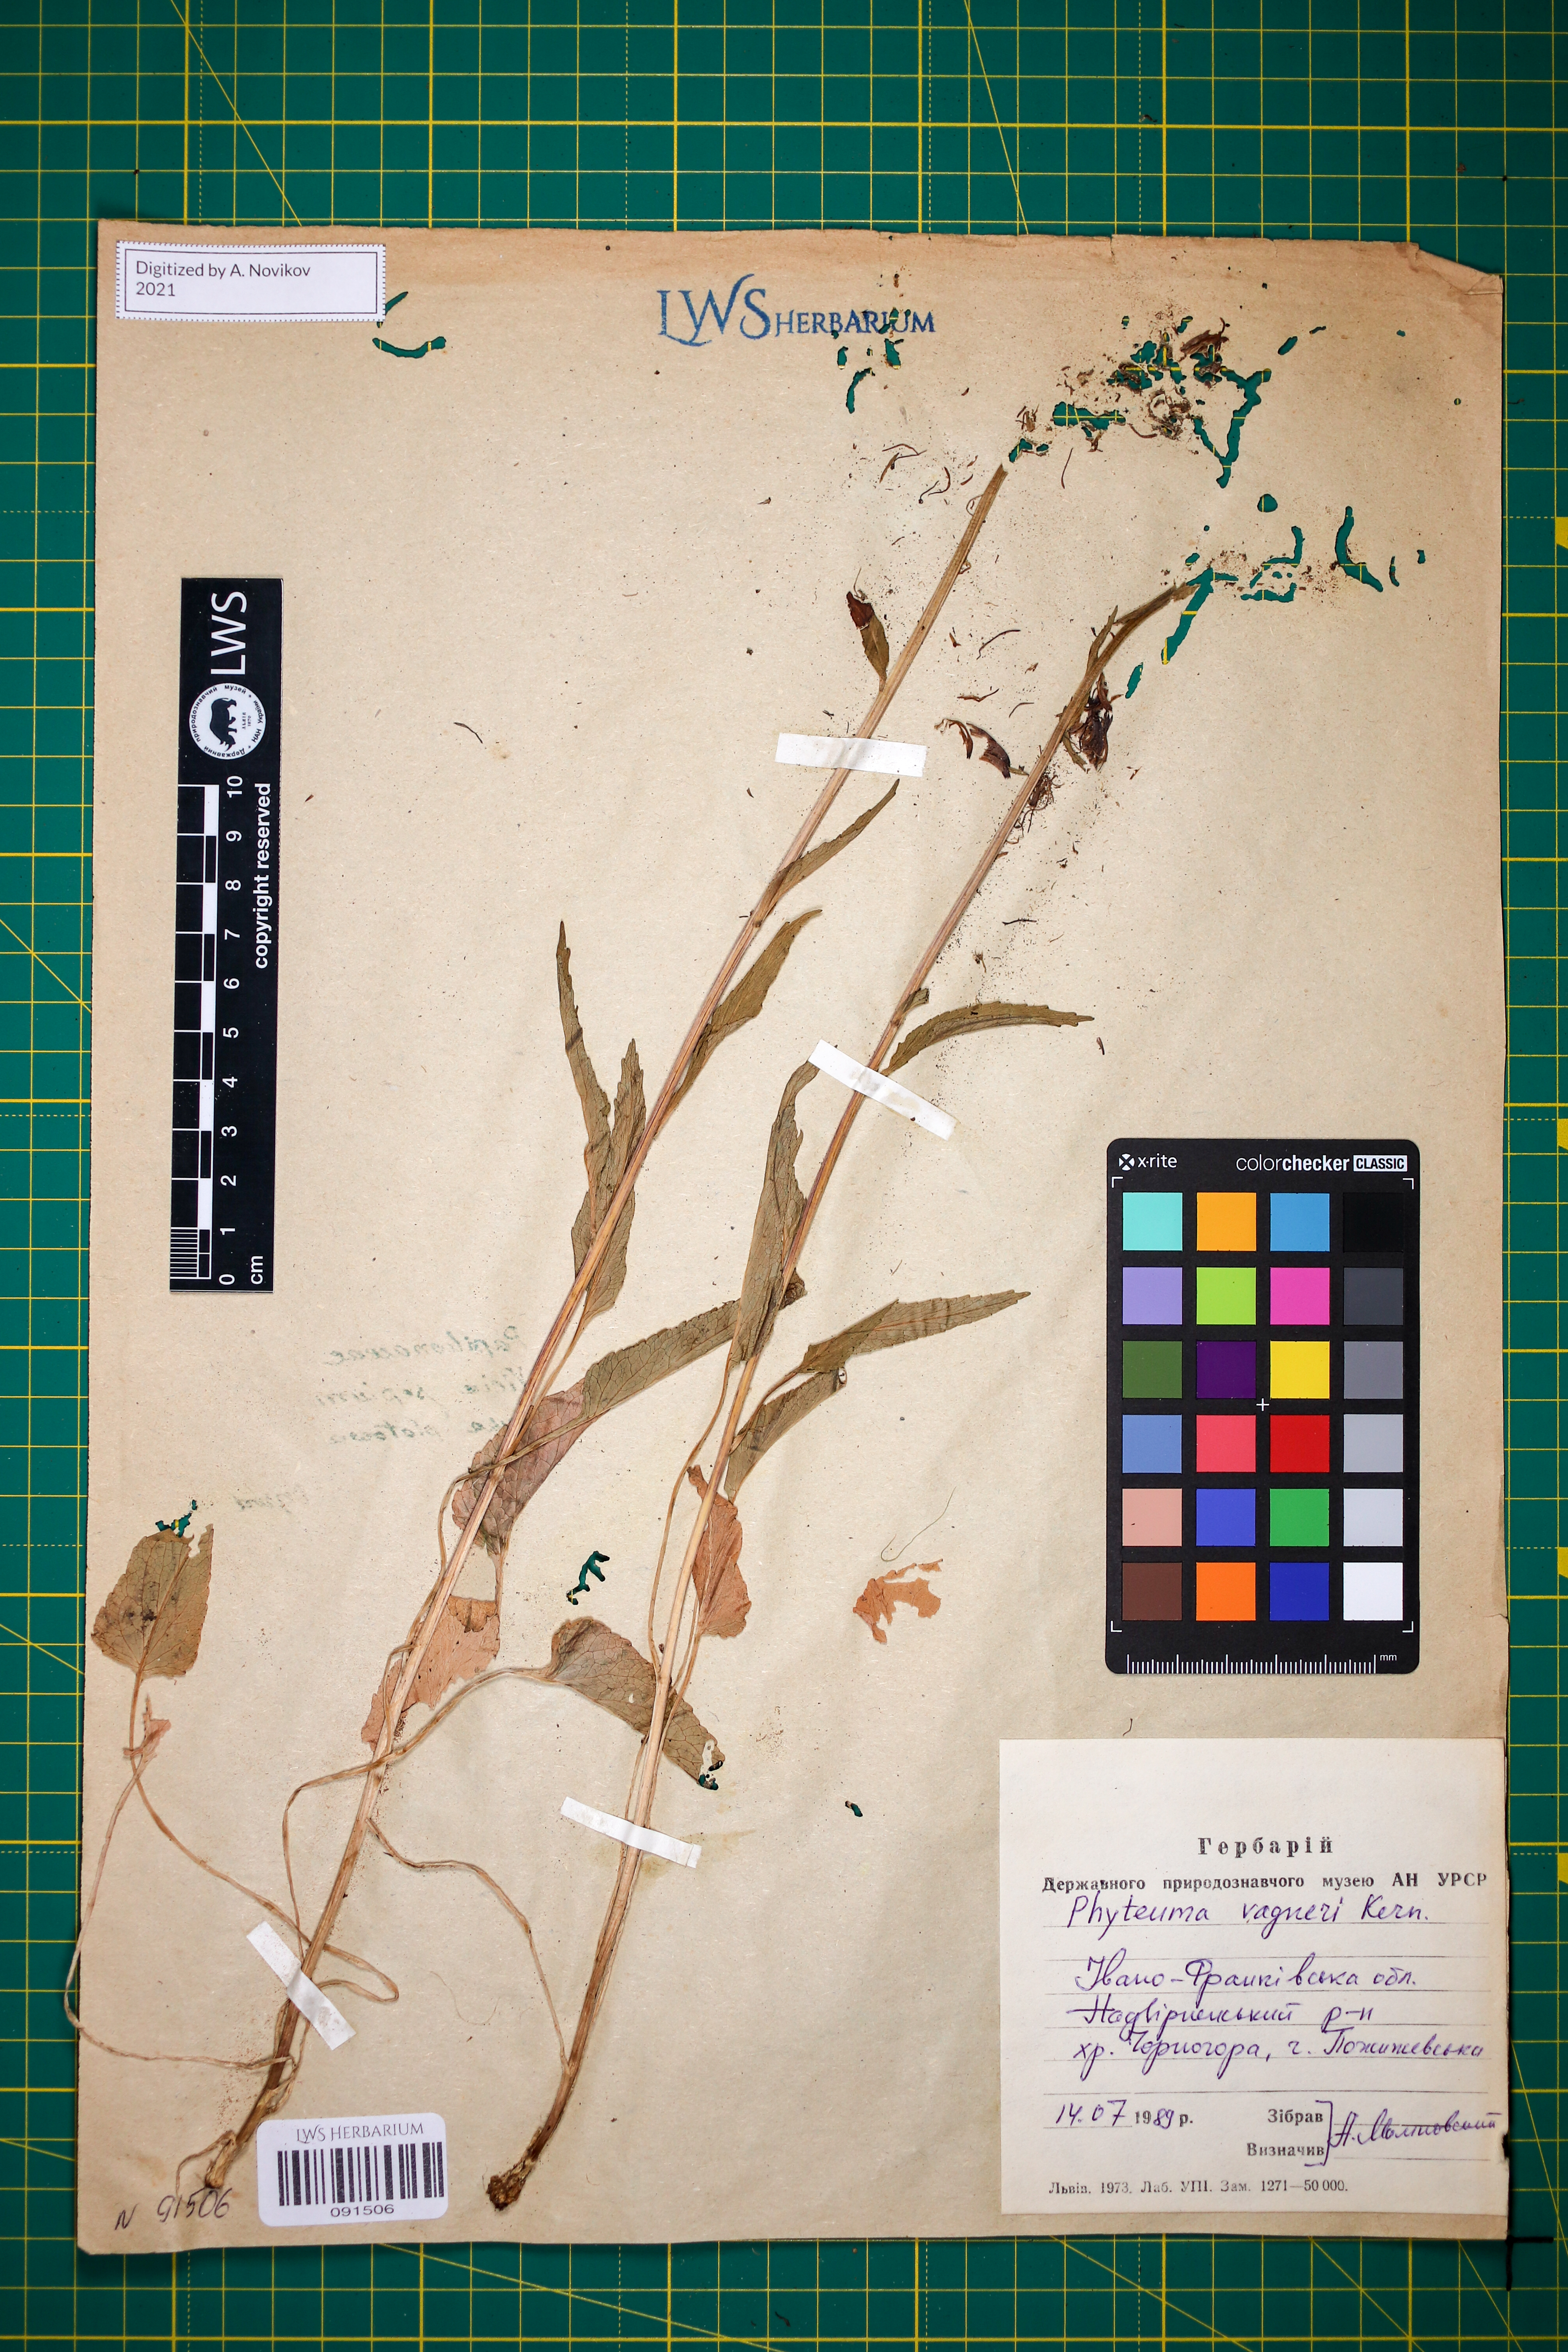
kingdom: Plantae
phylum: Tracheophyta
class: Magnoliopsida
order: Asterales
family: Campanulaceae
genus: Phyteuma
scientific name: Phyteuma vagneri
